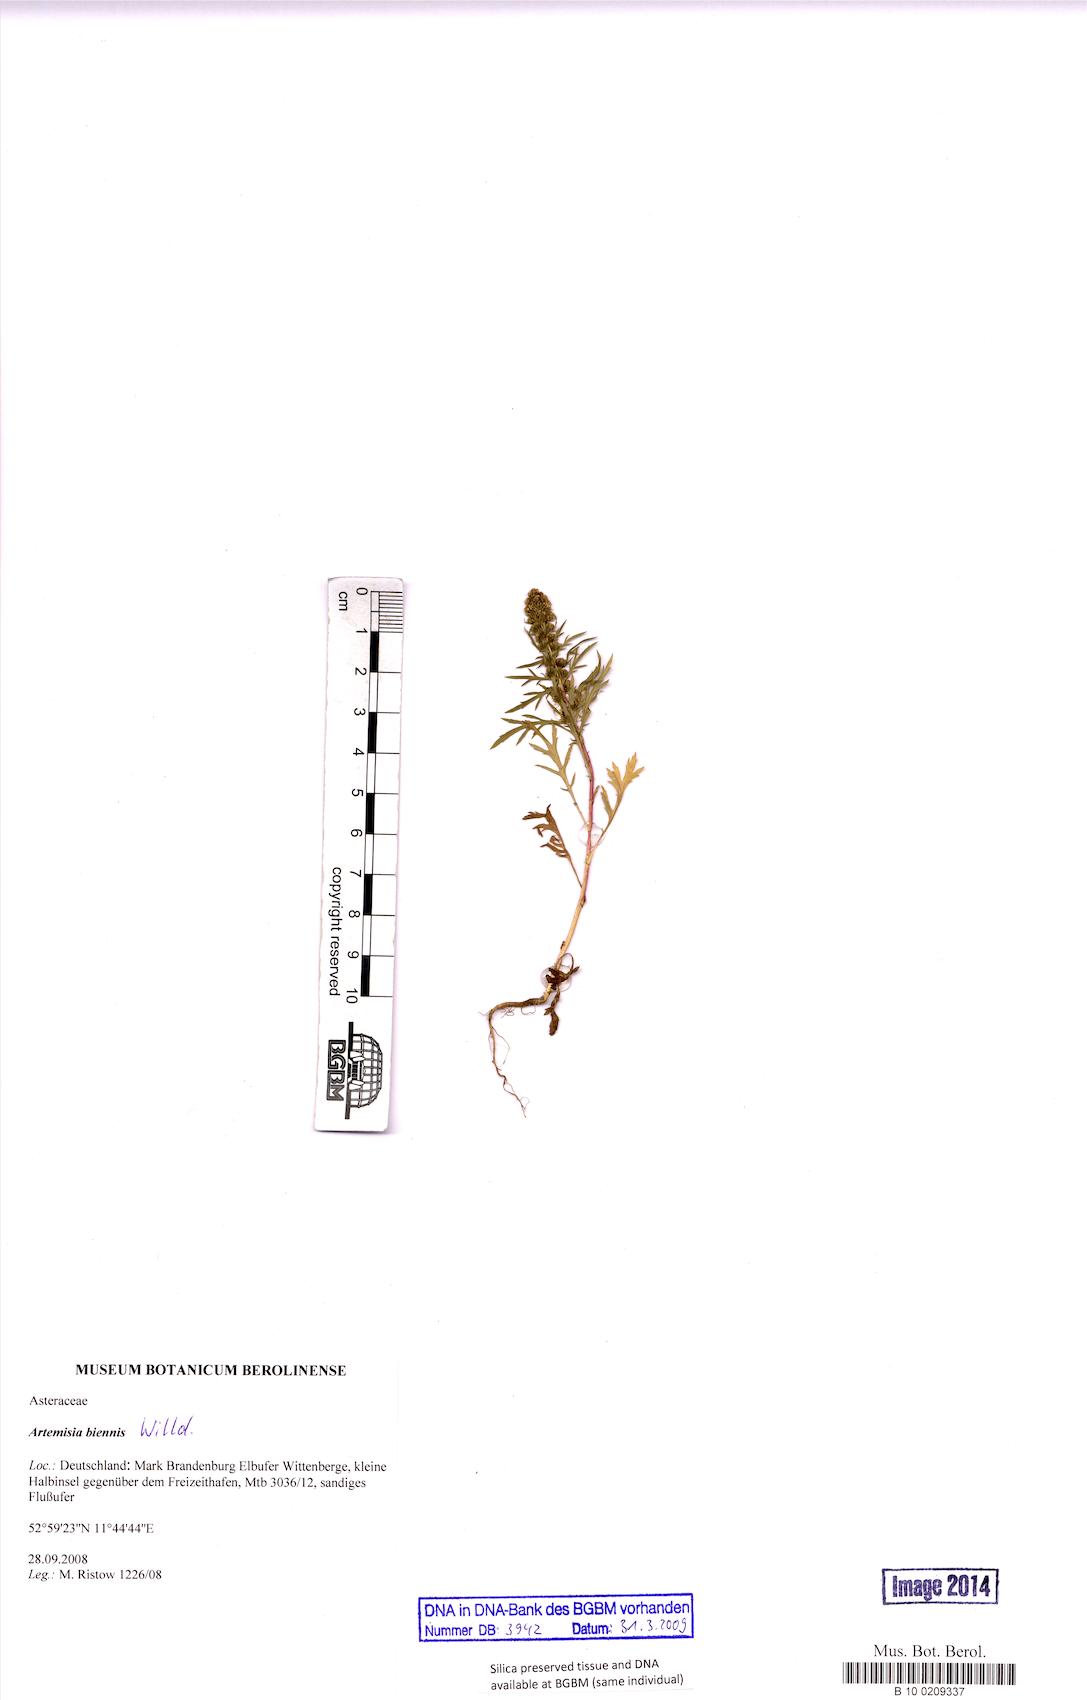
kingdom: Plantae
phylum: Tracheophyta
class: Magnoliopsida
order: Asterales
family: Asteraceae
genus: Artemisia
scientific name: Artemisia biennis
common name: Biennial wormwood
